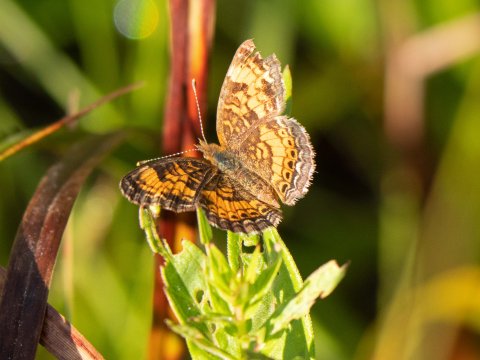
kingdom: Animalia
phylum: Arthropoda
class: Insecta
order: Lepidoptera
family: Nymphalidae
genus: Phyciodes
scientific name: Phyciodes
